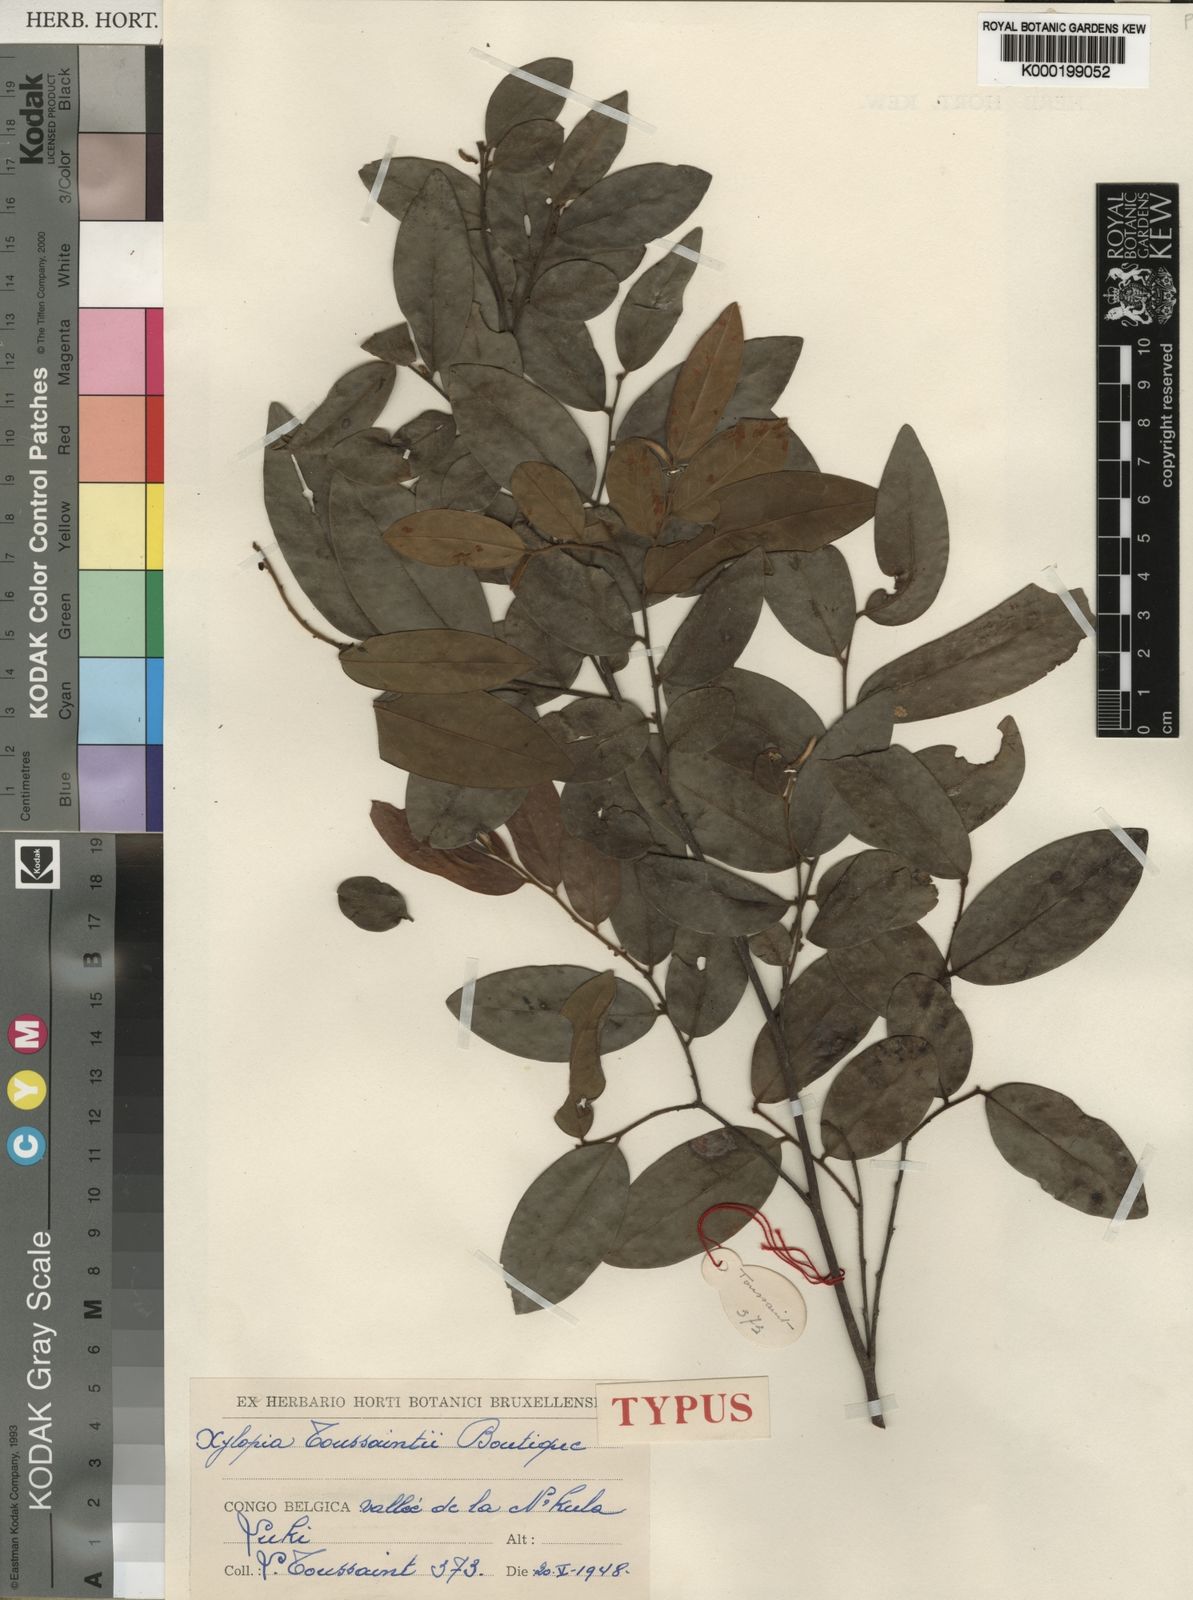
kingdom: Plantae
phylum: Tracheophyta
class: Magnoliopsida
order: Magnoliales
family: Annonaceae
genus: Xylopia
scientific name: Xylopia toussaintii
